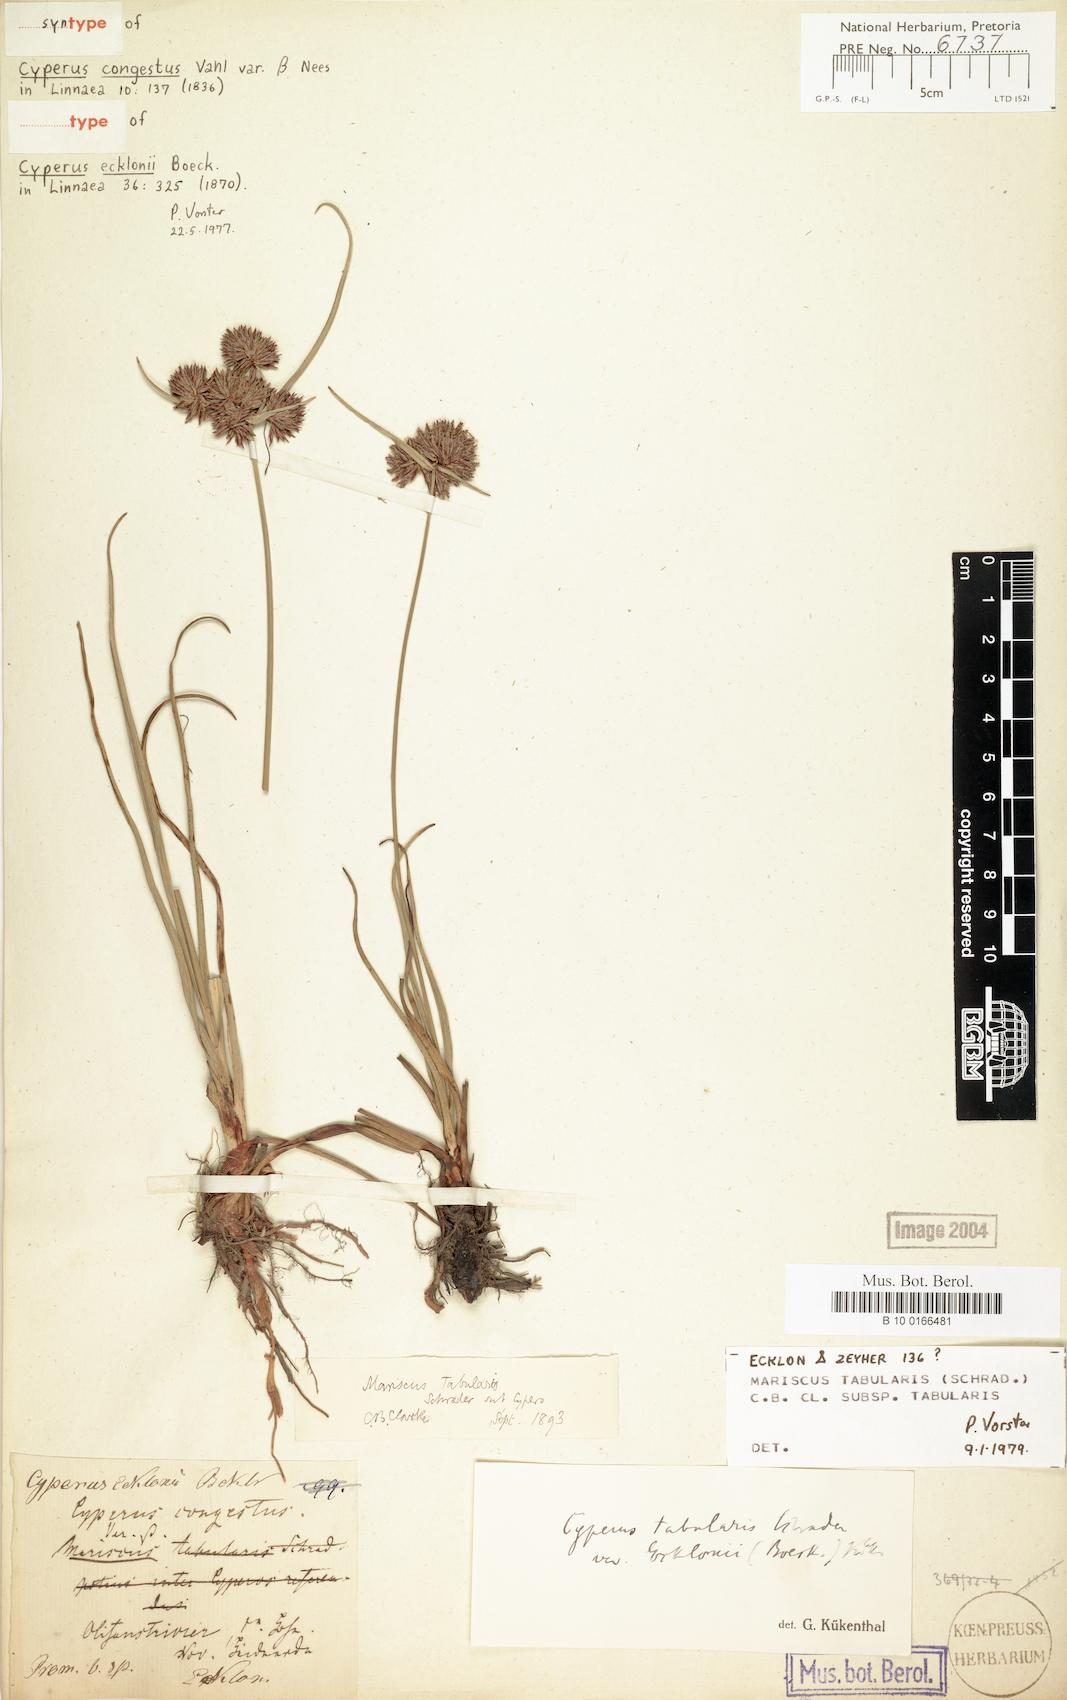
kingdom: Plantae
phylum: Tracheophyta
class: Liliopsida
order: Poales
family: Cyperaceae
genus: Cyperus
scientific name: Cyperus tabularis
